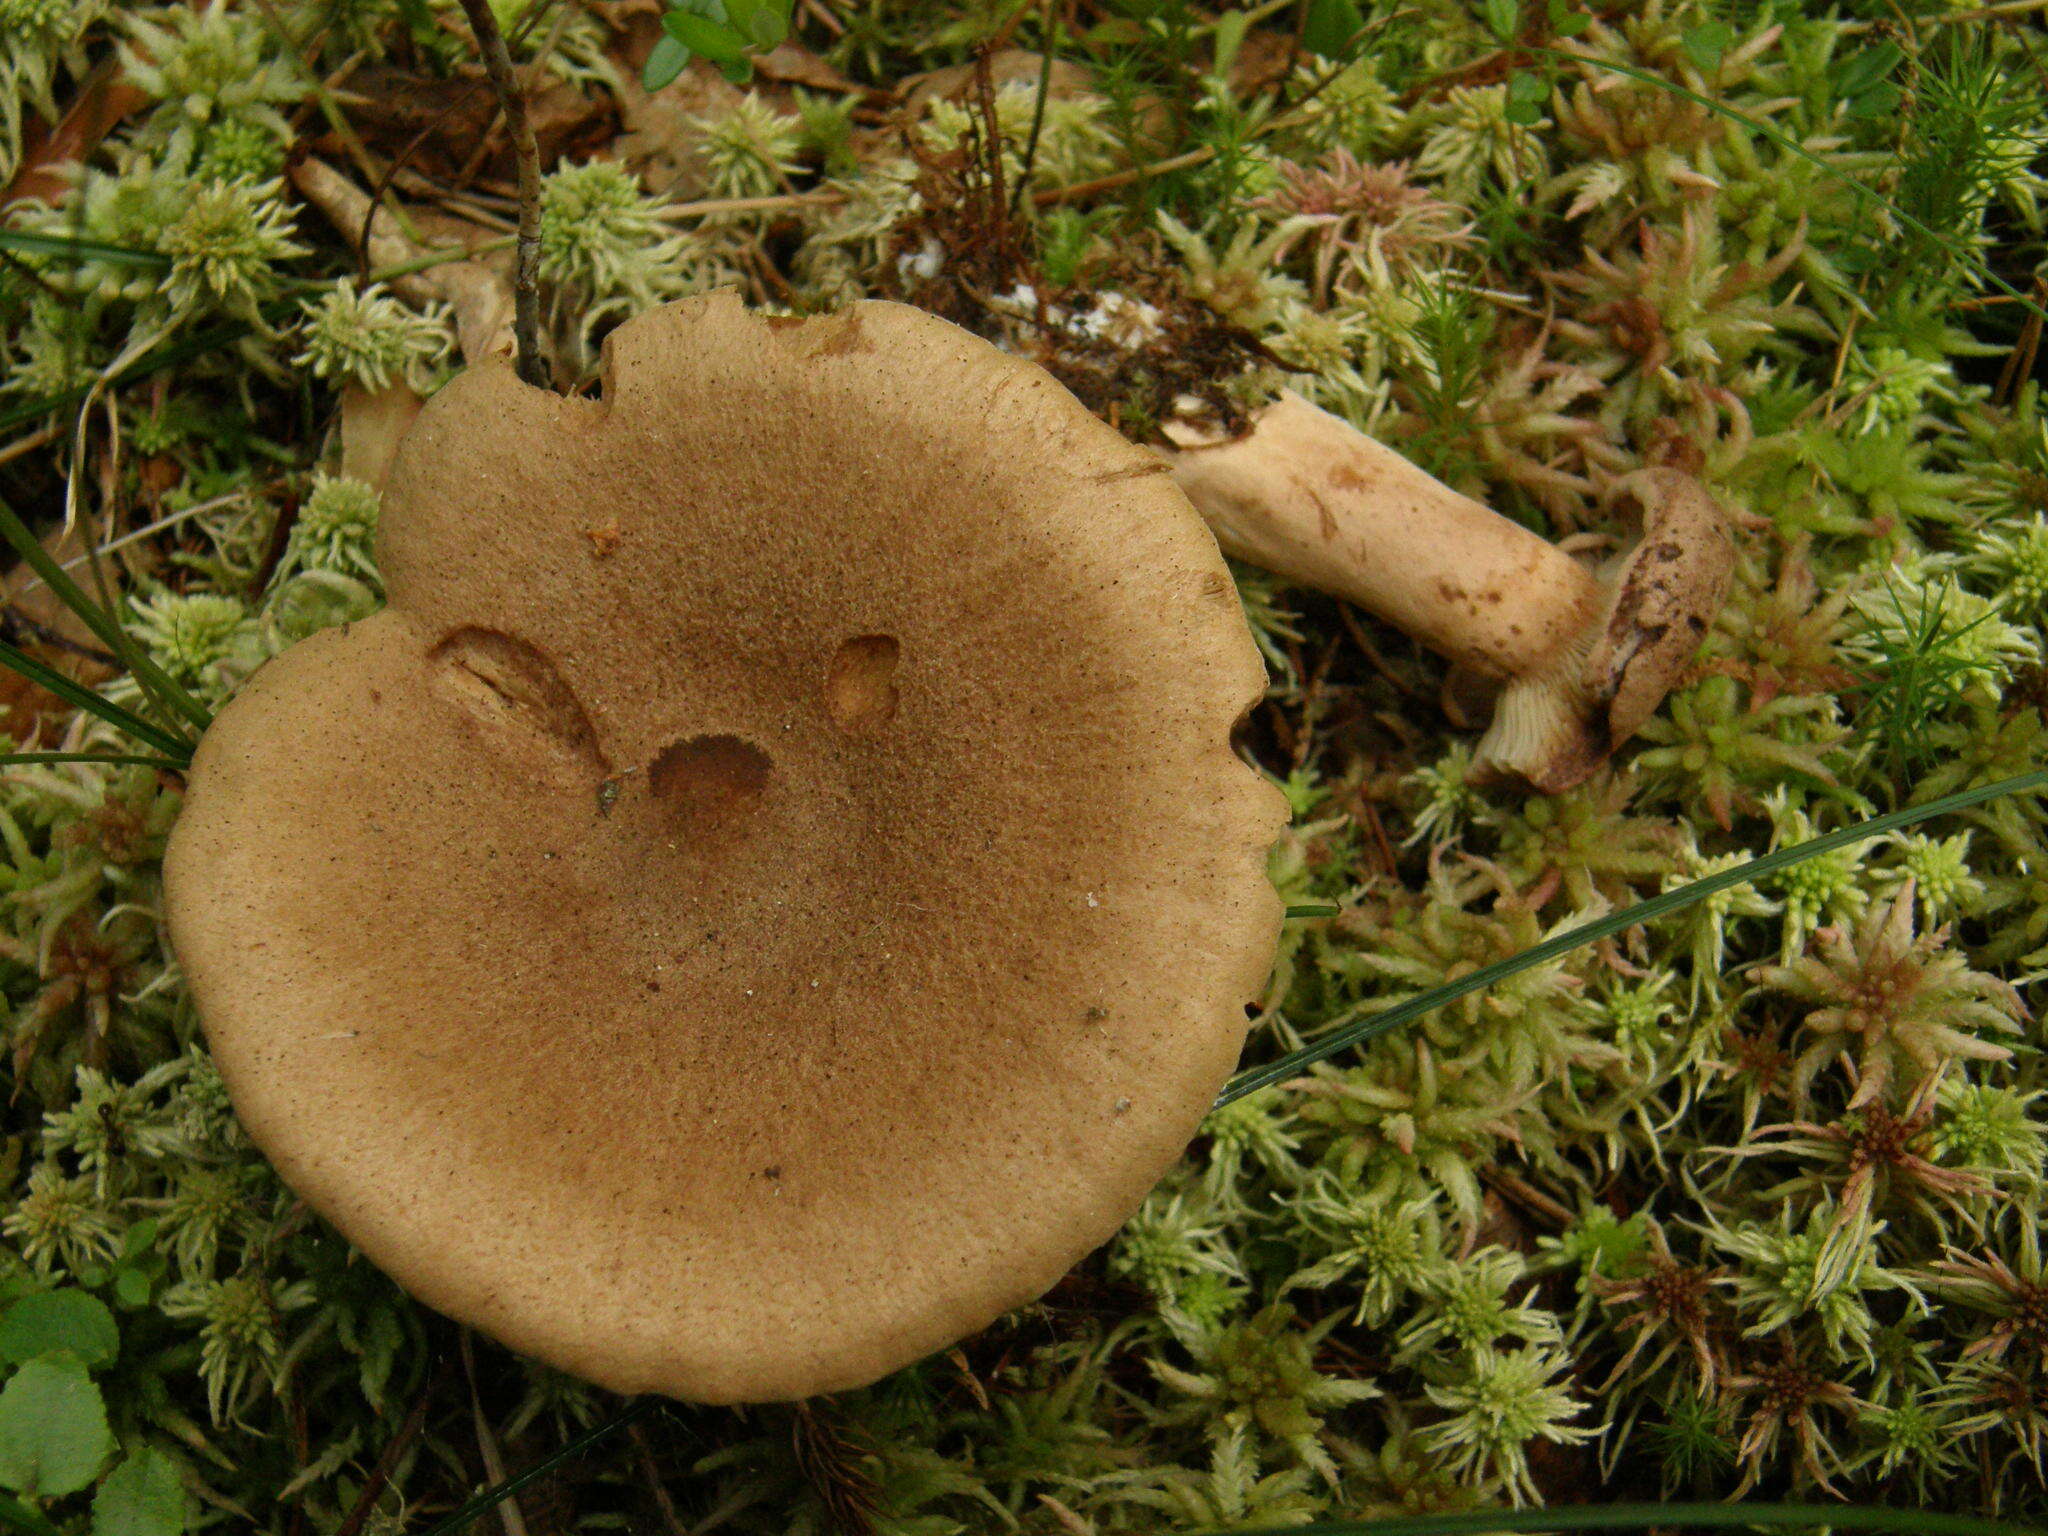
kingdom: Fungi
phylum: Basidiomycota
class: Agaricomycetes
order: Russulales
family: Russulaceae
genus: Lactarius
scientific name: Lactarius helvus
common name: Fenugreek milkcap
